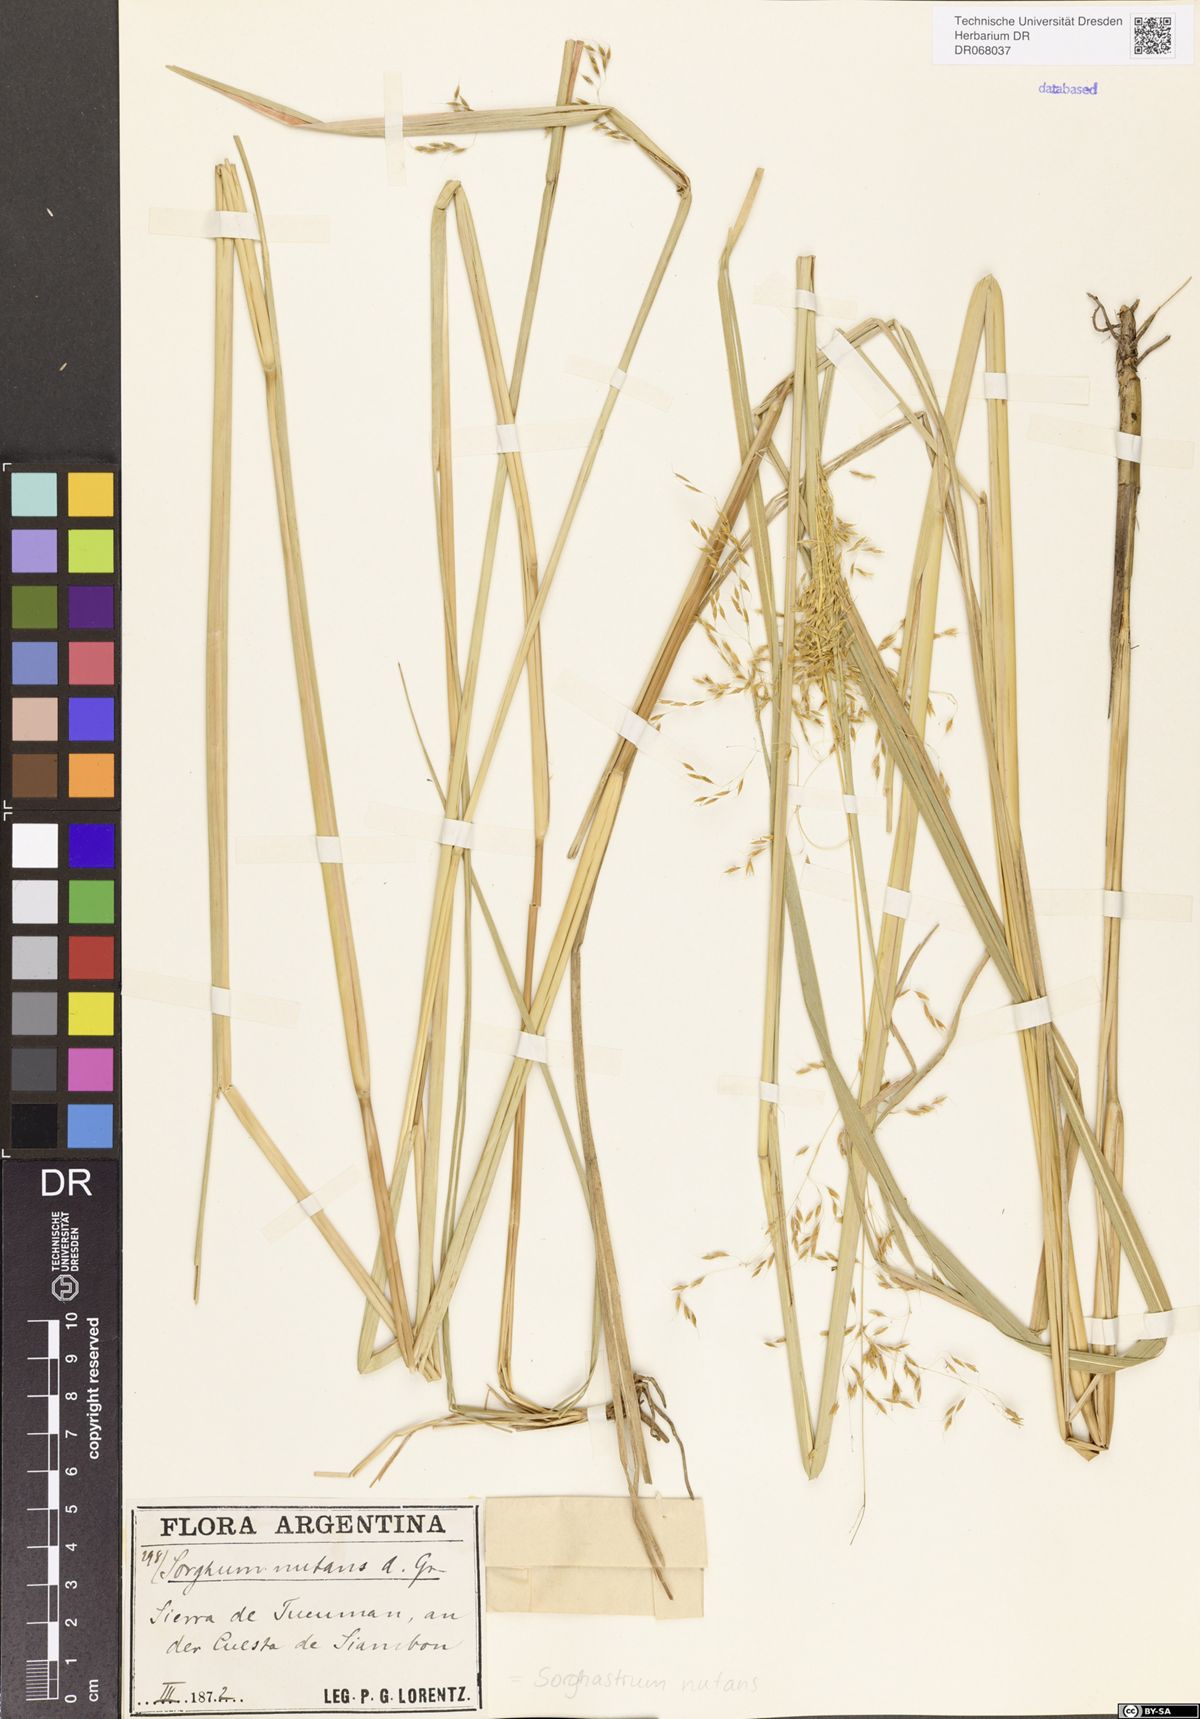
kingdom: Plantae
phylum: Tracheophyta
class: Liliopsida
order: Poales
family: Poaceae
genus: Sorghastrum
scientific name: Sorghastrum nutans
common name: Indian grass
